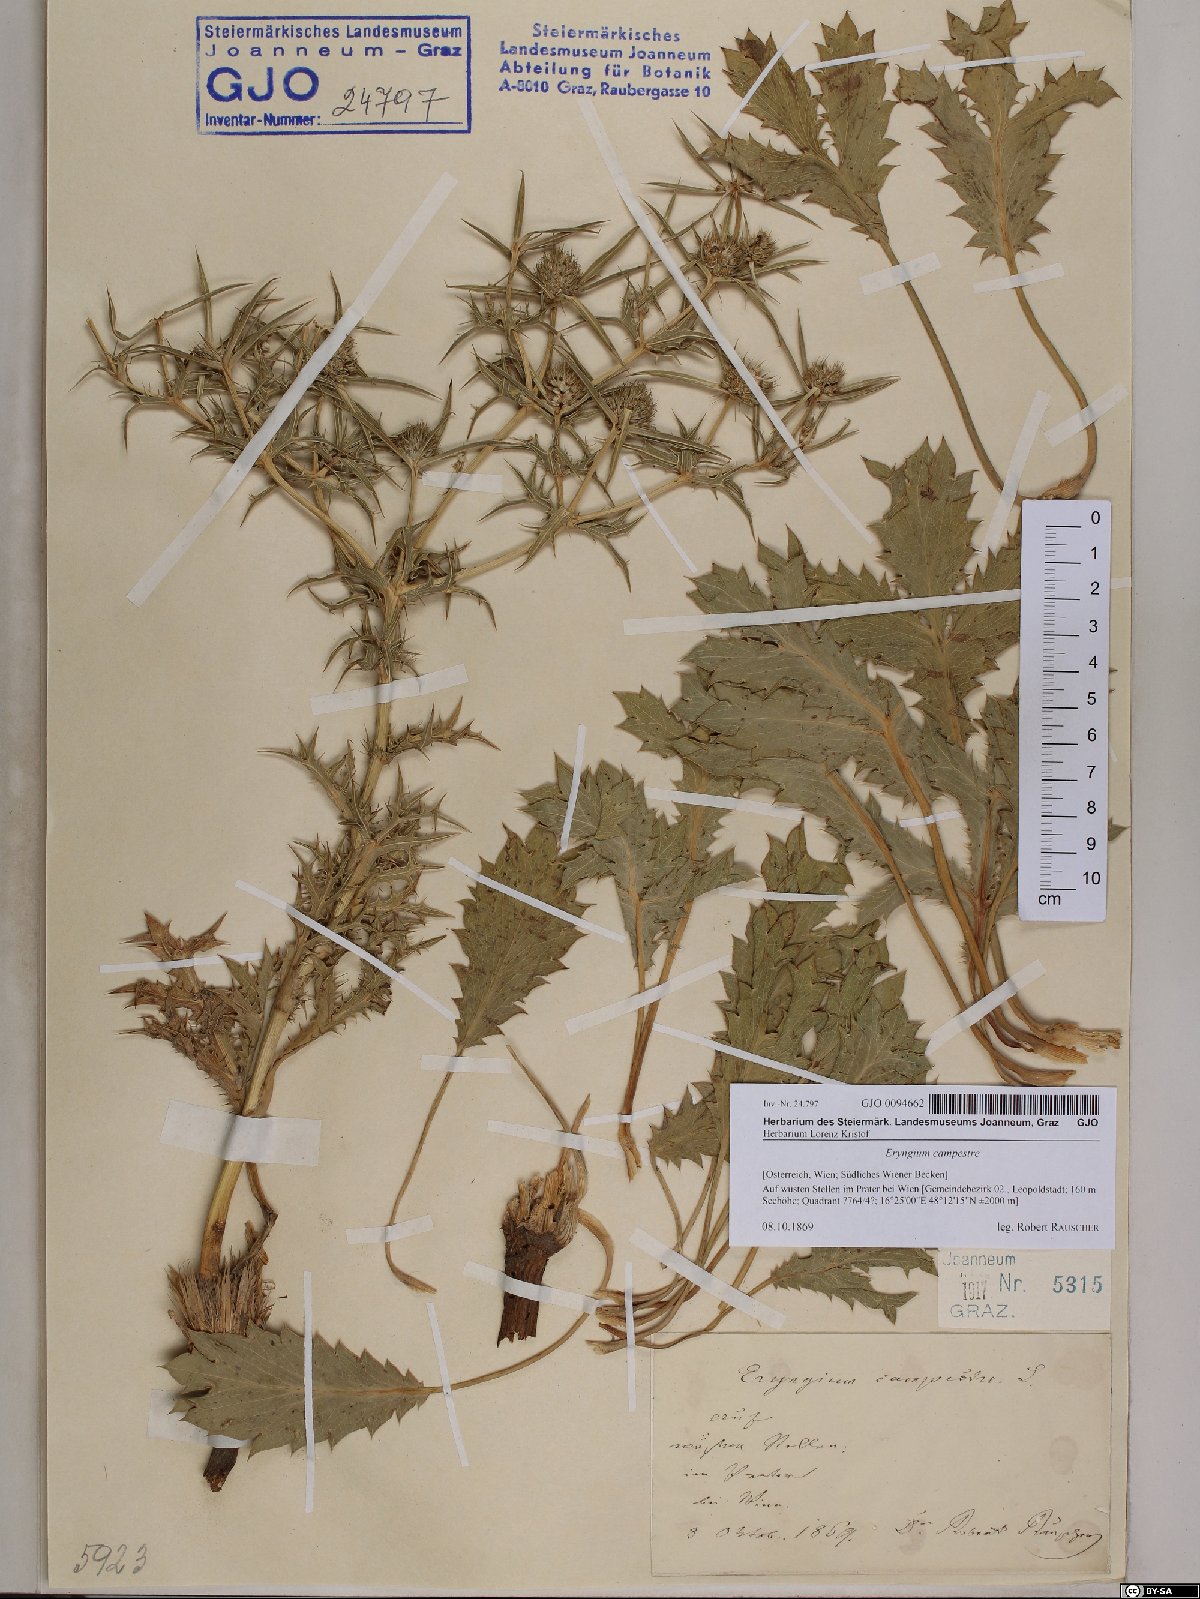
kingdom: Plantae
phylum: Tracheophyta
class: Magnoliopsida
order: Apiales
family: Apiaceae
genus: Eryngium
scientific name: Eryngium campestre
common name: Field eryngo
